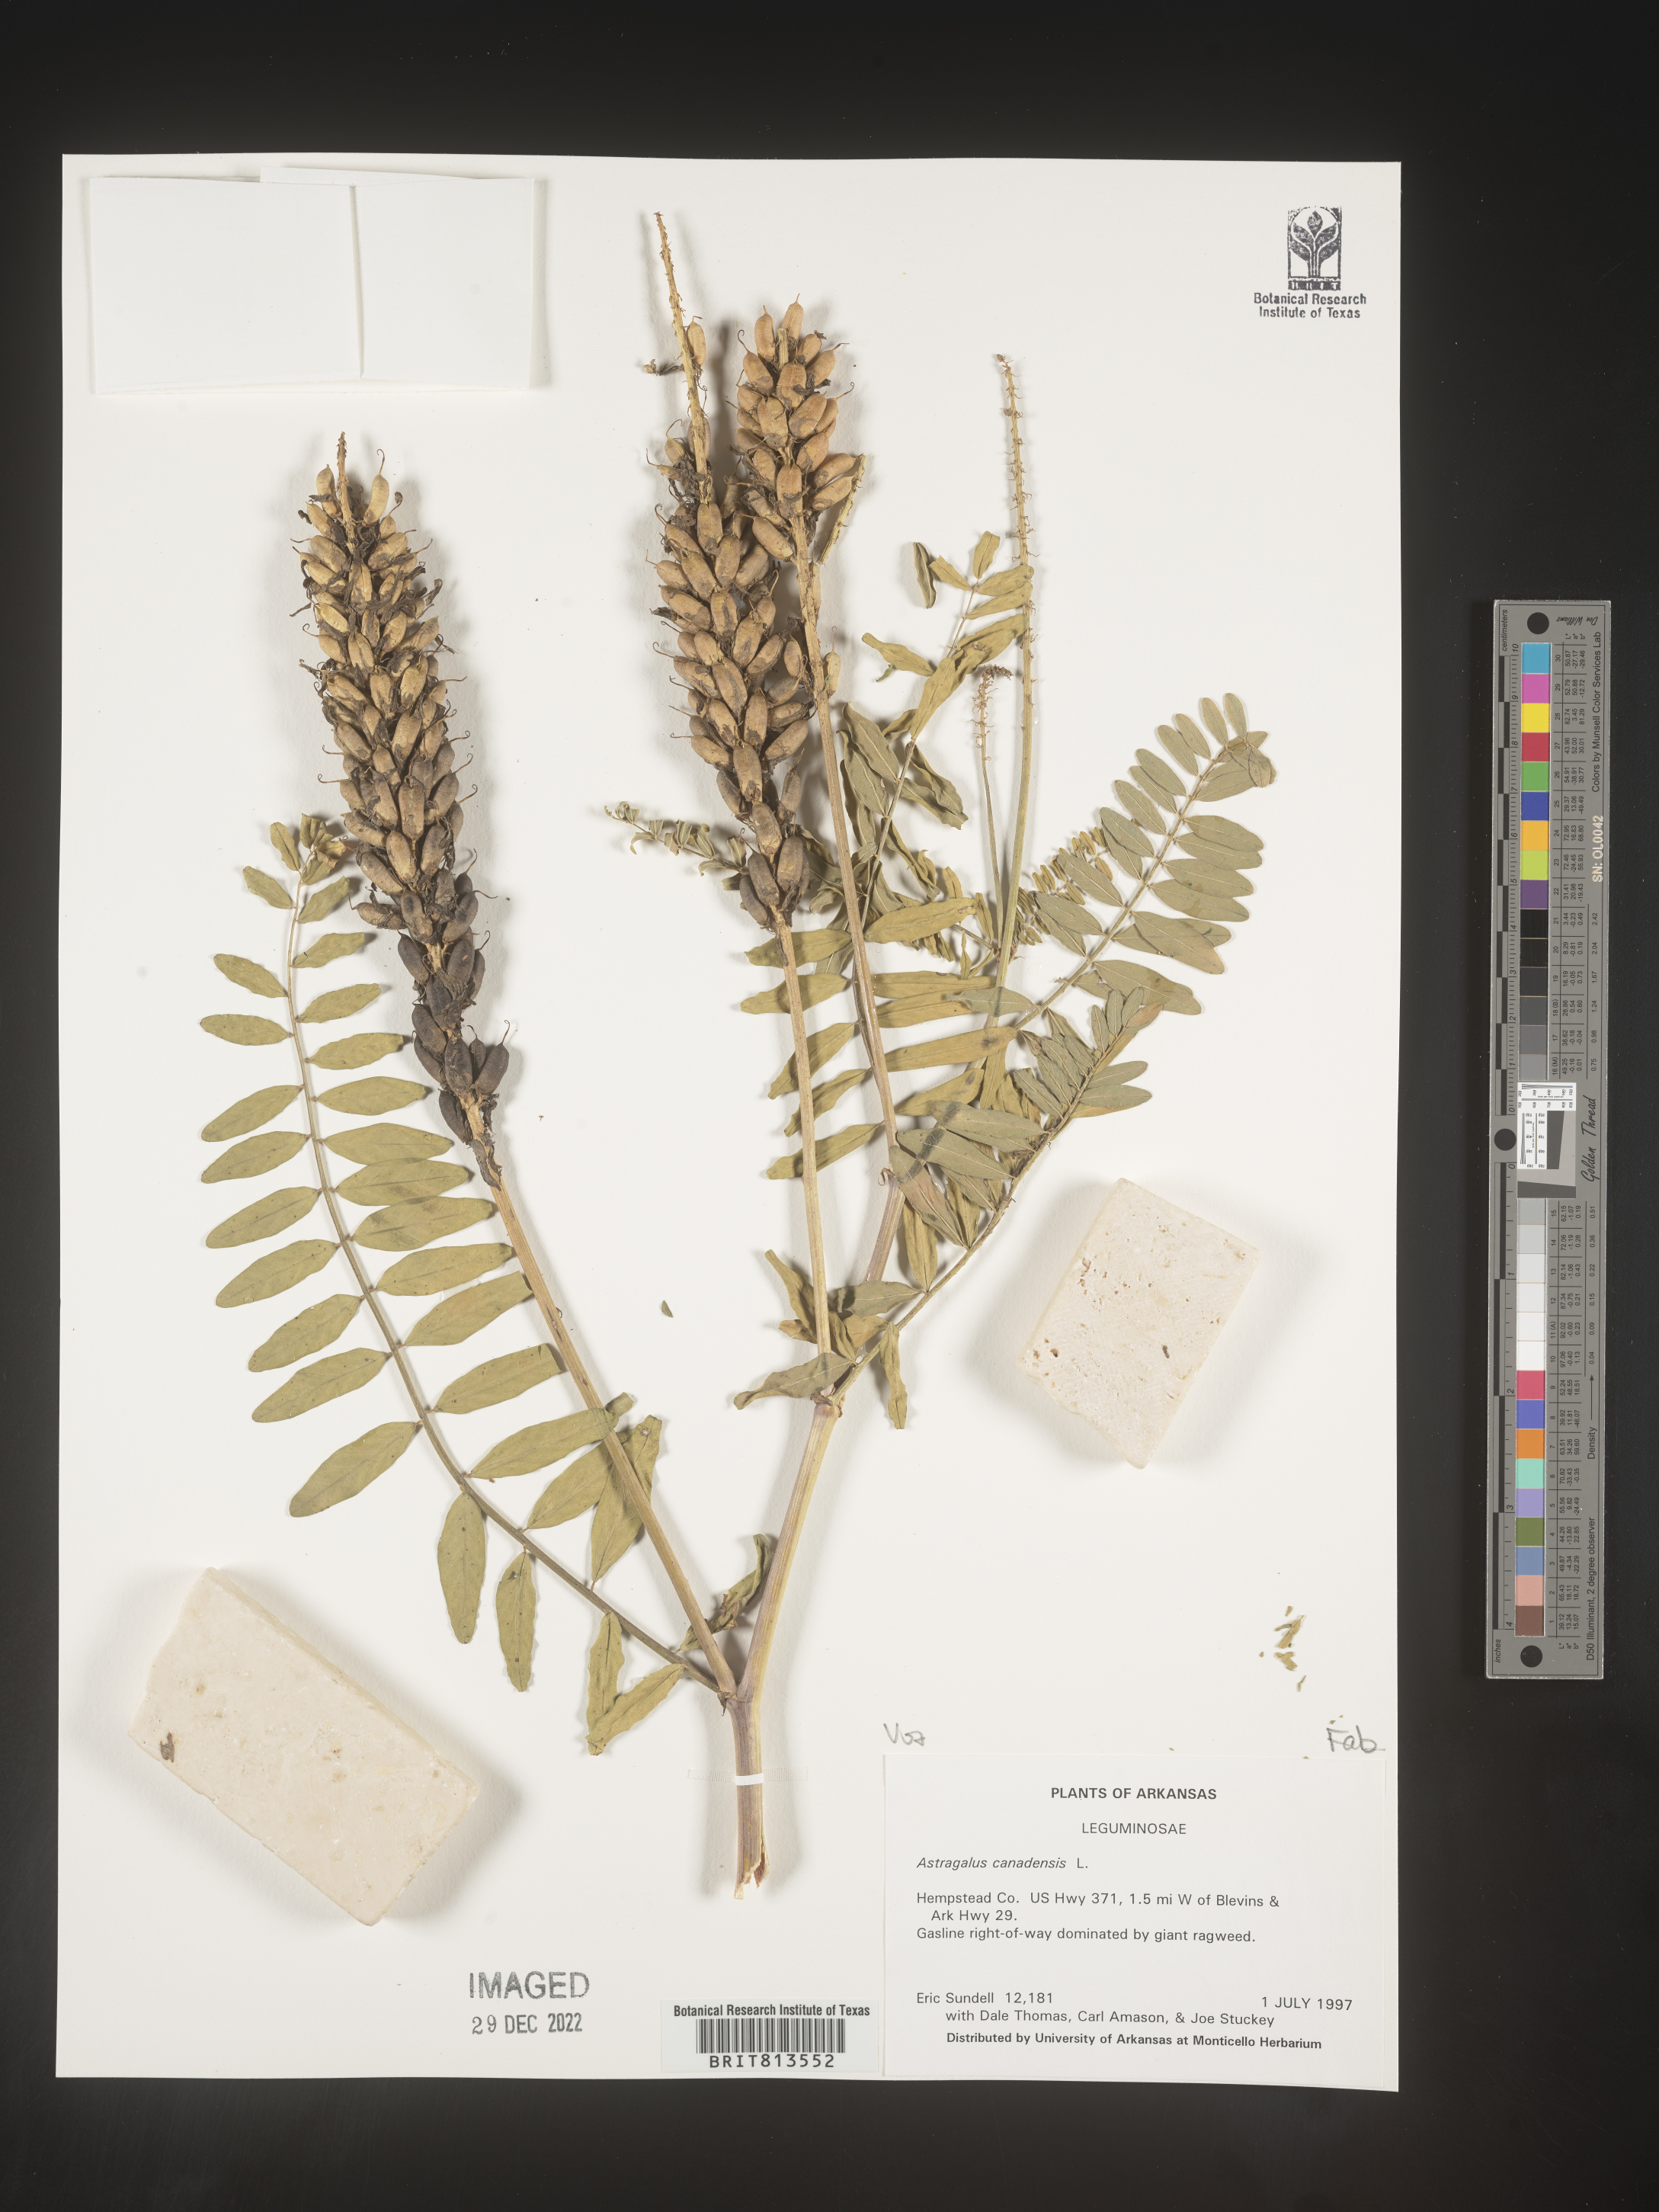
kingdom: Plantae
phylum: Tracheophyta
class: Magnoliopsida
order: Fabales
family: Fabaceae
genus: Astragalus
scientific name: Astragalus canadensis
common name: Canada milk-vetch
